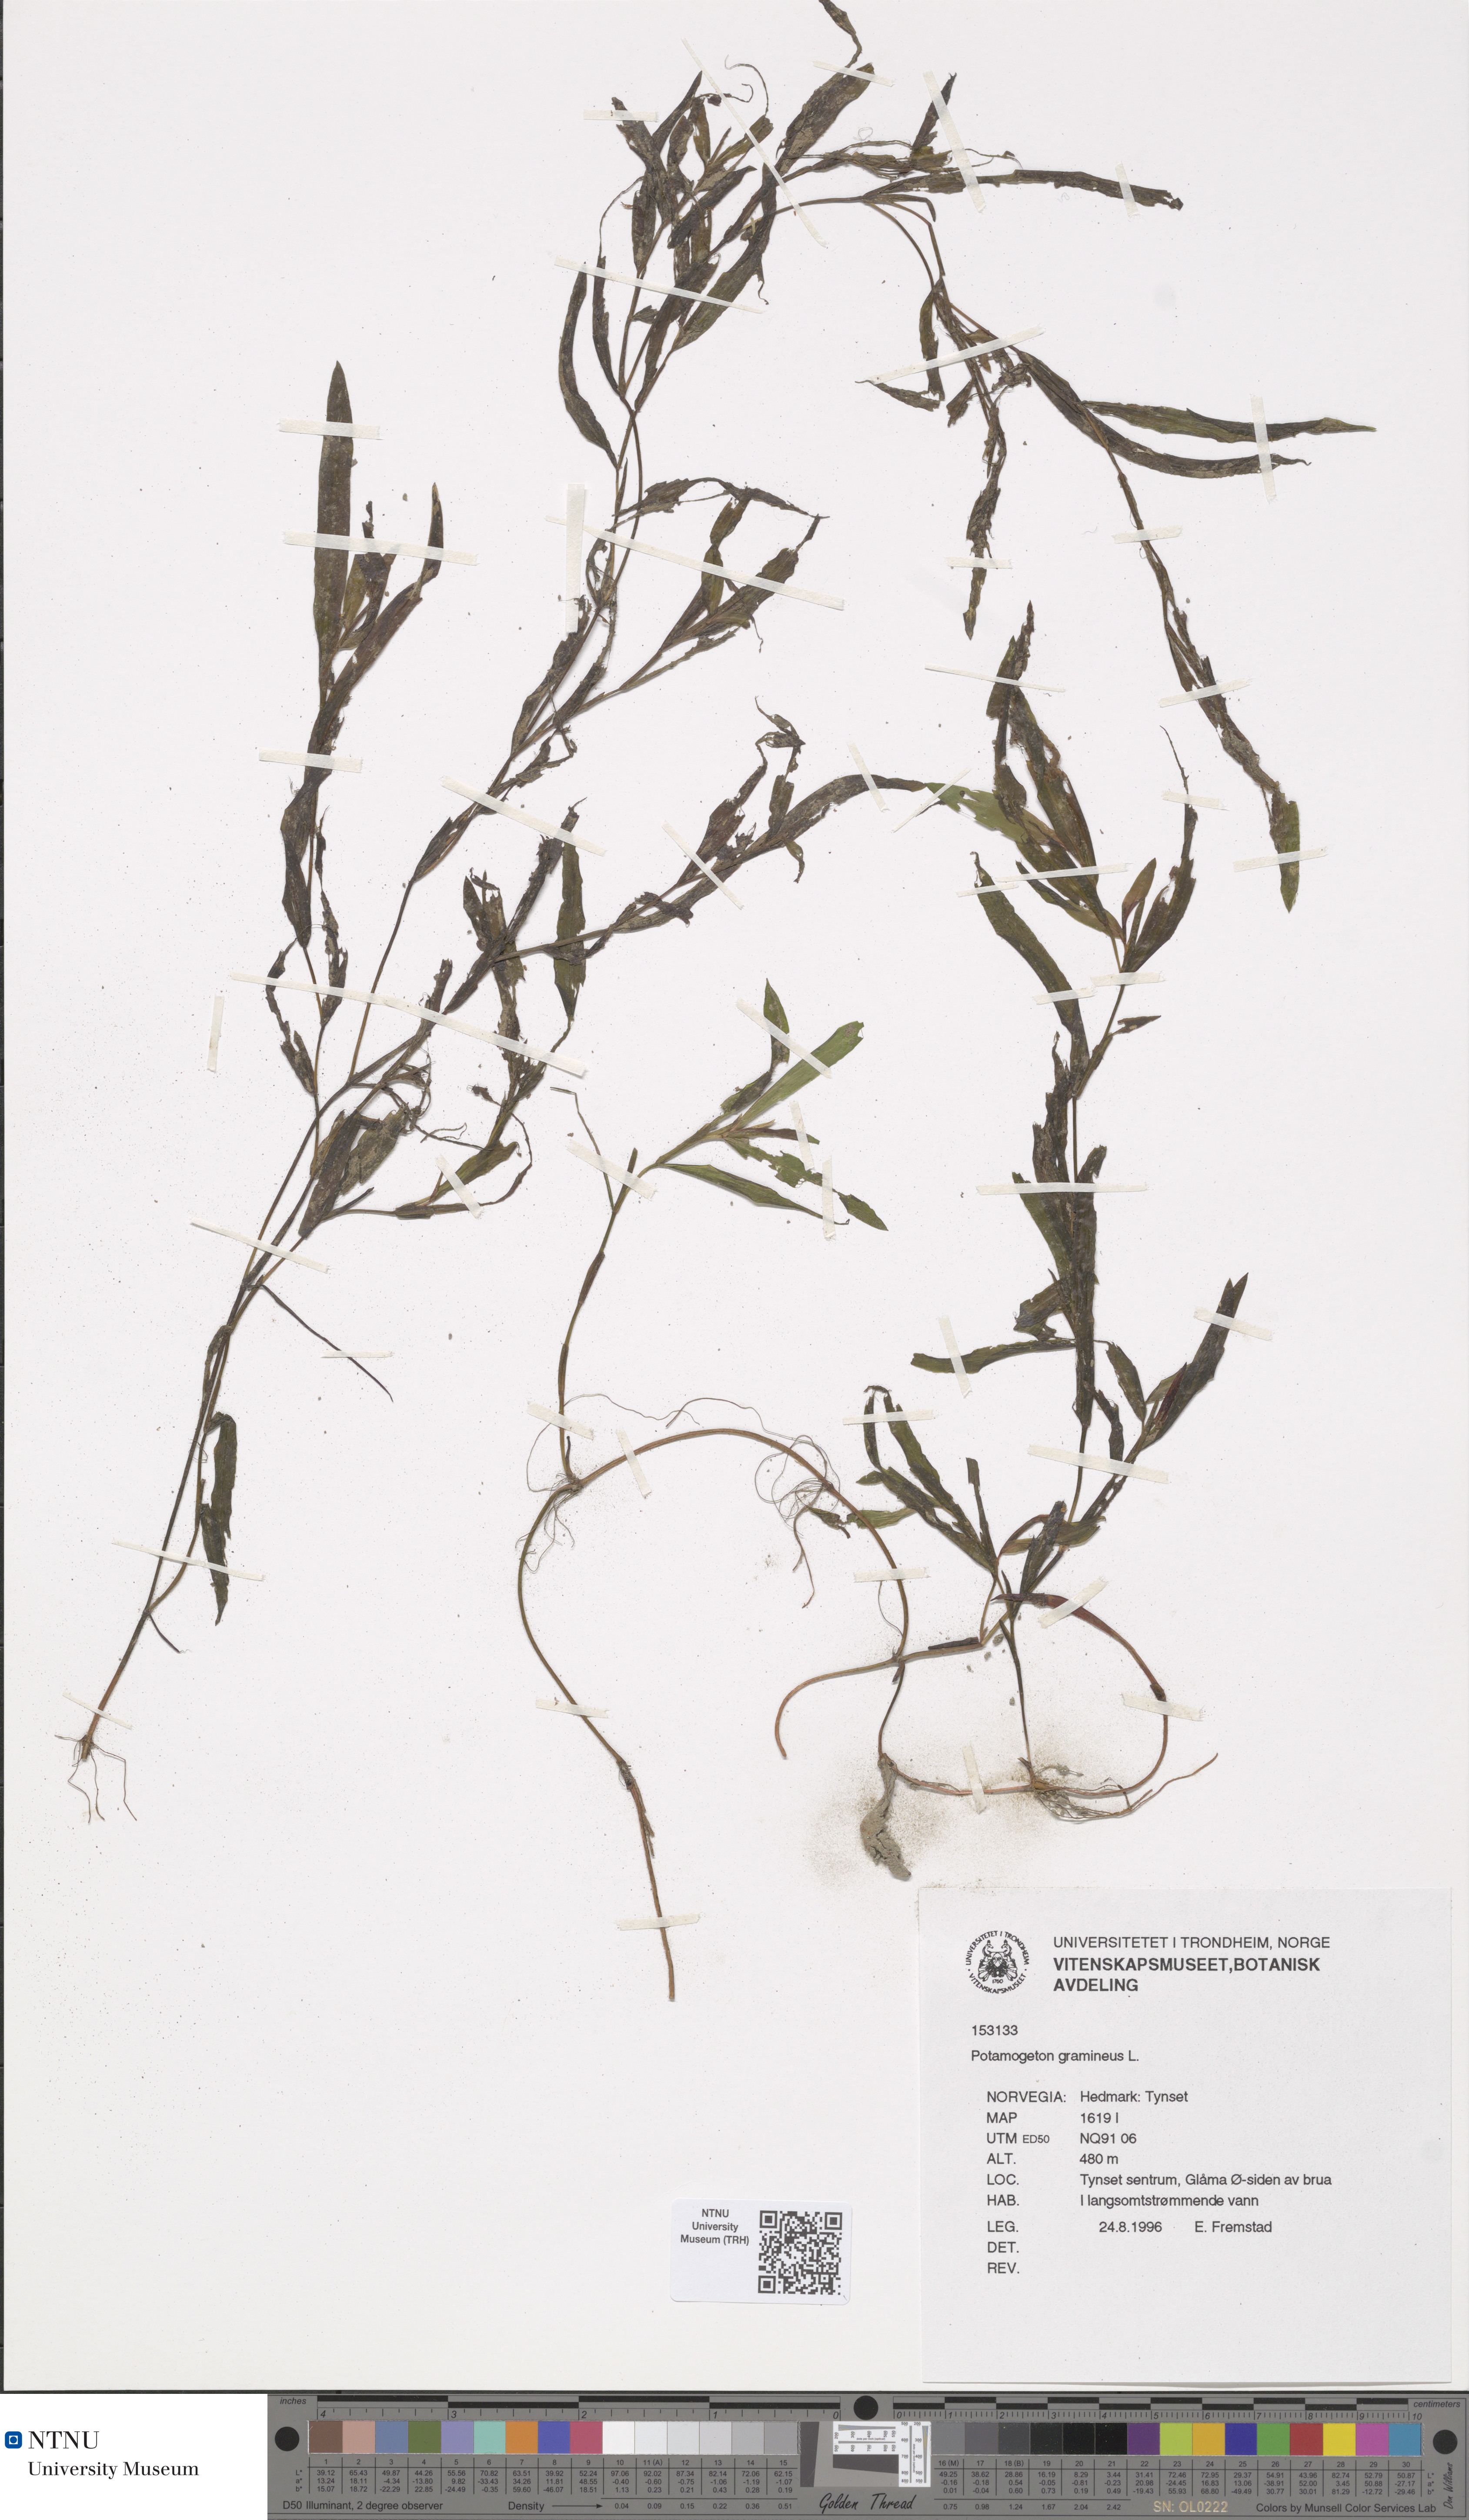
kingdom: Plantae
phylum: Tracheophyta
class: Liliopsida
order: Alismatales
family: Potamogetonaceae
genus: Potamogeton
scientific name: Potamogeton gramineus
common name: Various-leaved pondweed
